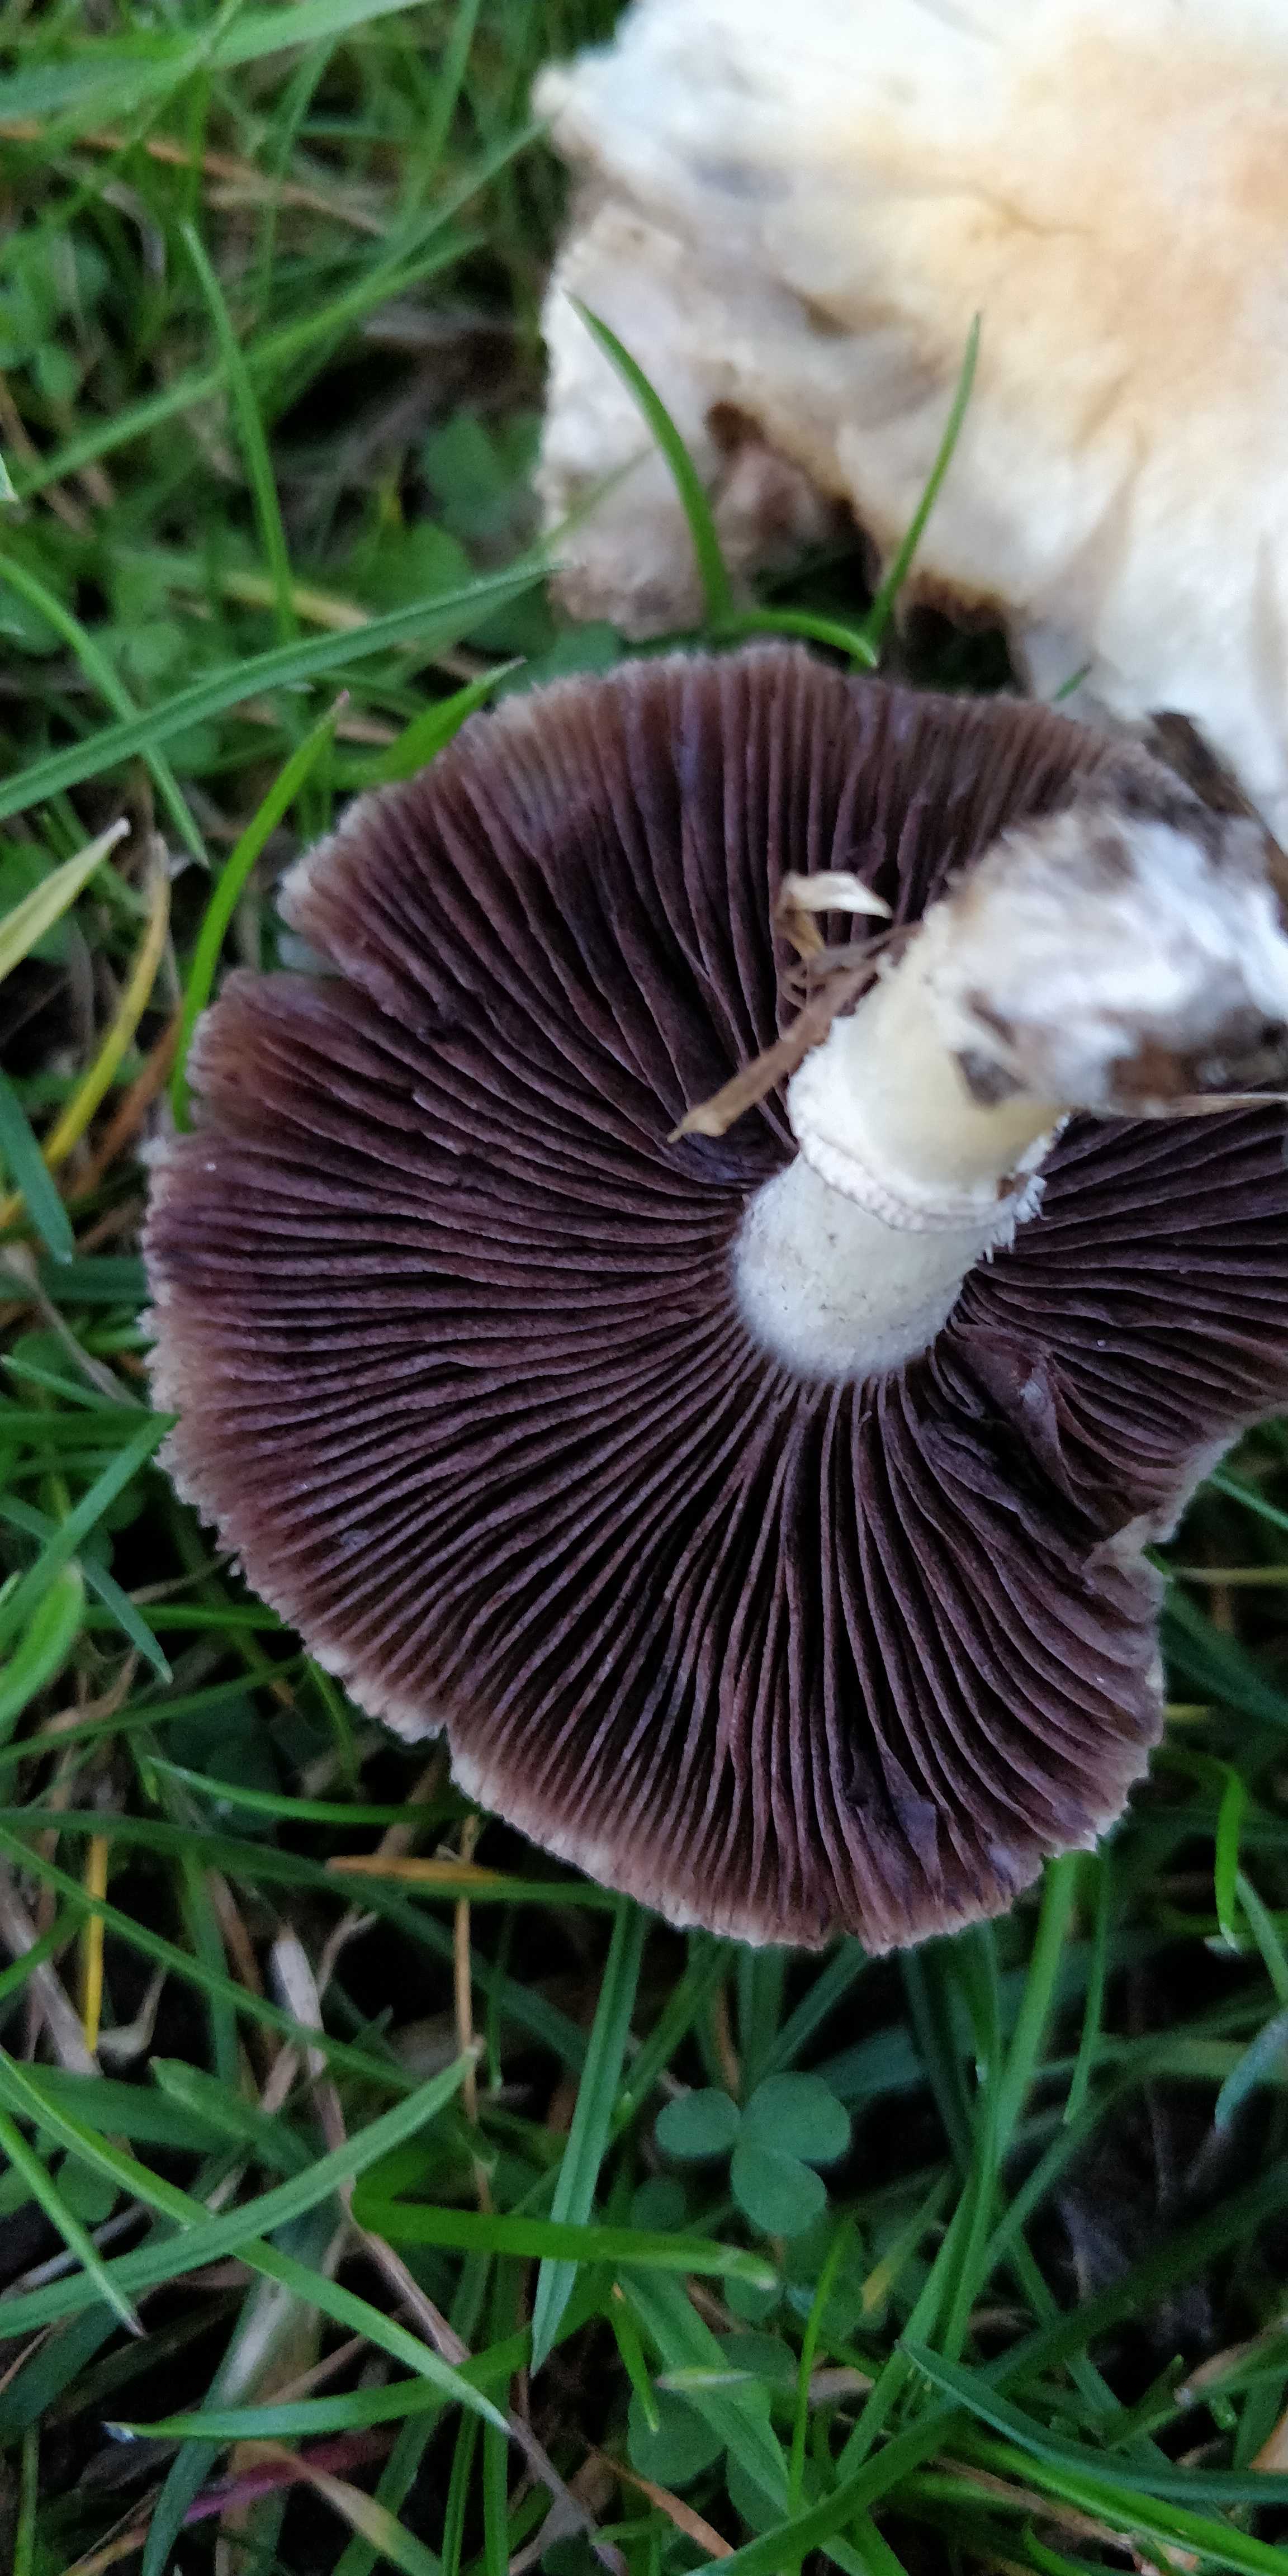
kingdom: Fungi
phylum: Basidiomycota
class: Agaricomycetes
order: Agaricales
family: Hymenogastraceae
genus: Psilocybe
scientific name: Psilocybe coronilla
